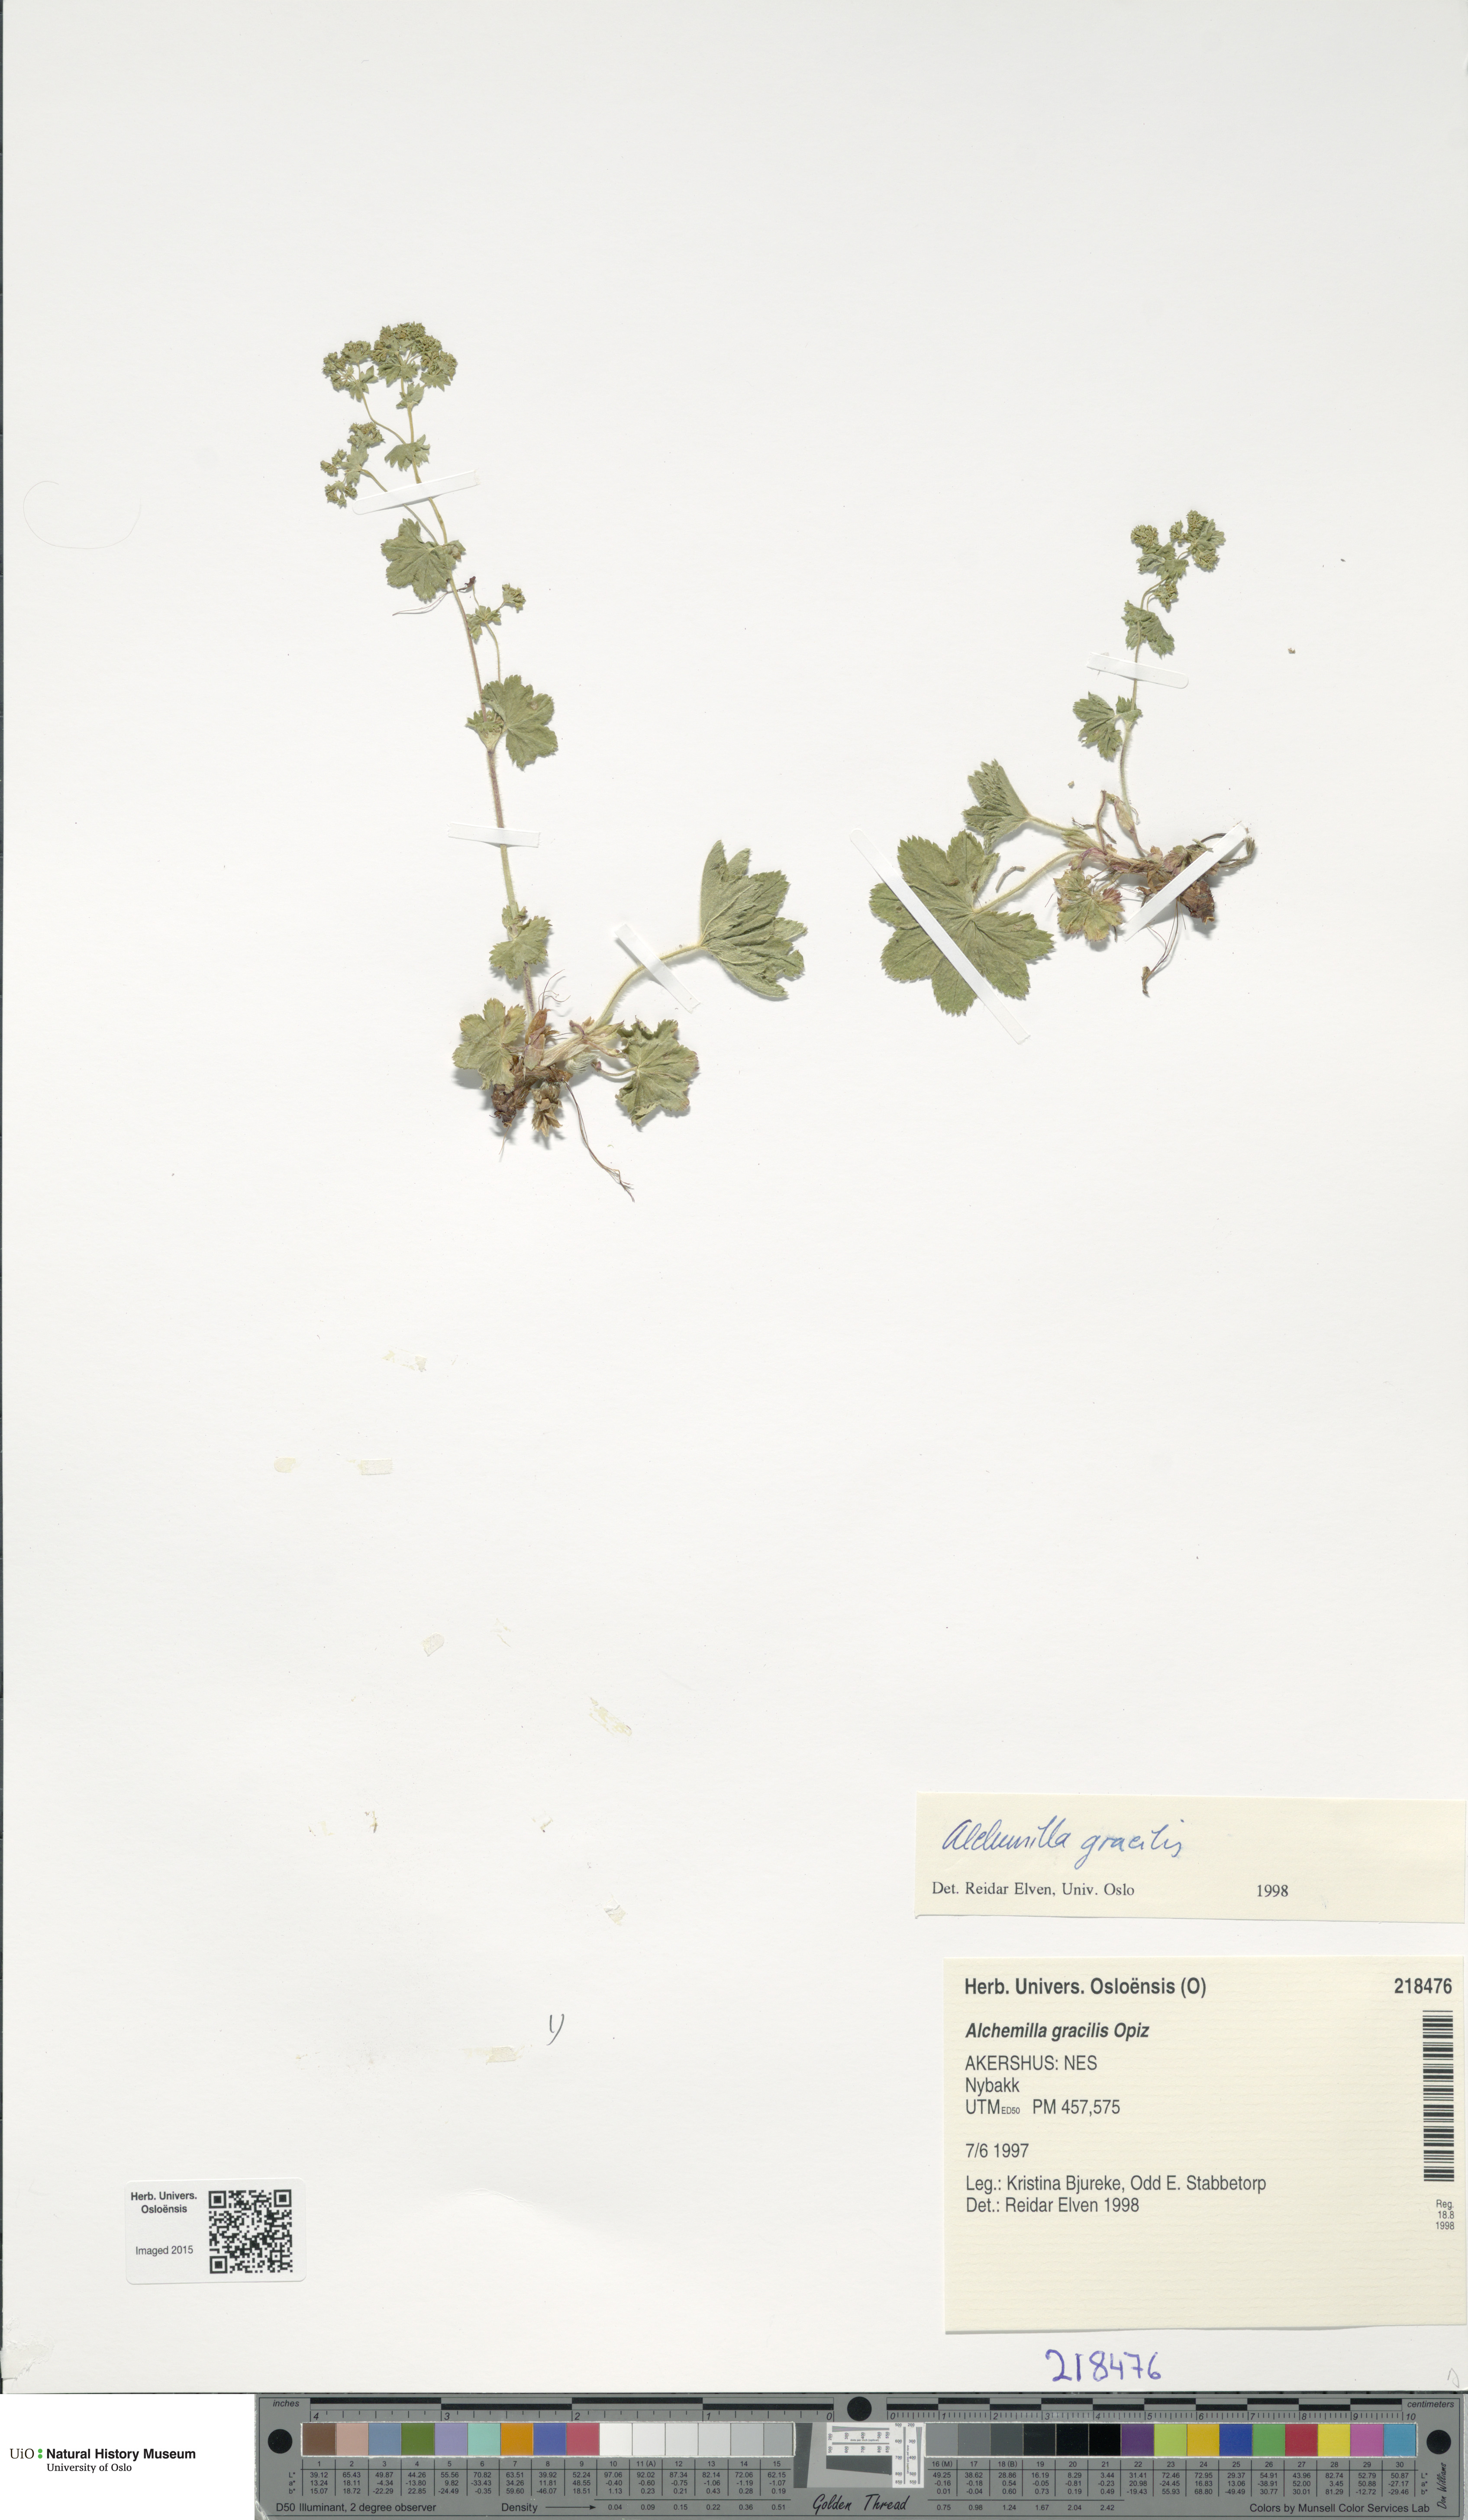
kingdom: Plantae
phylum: Tracheophyta
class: Magnoliopsida
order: Rosales
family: Rosaceae
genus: Alchemilla
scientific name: Alchemilla micans
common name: Gleaming lady's mantle
